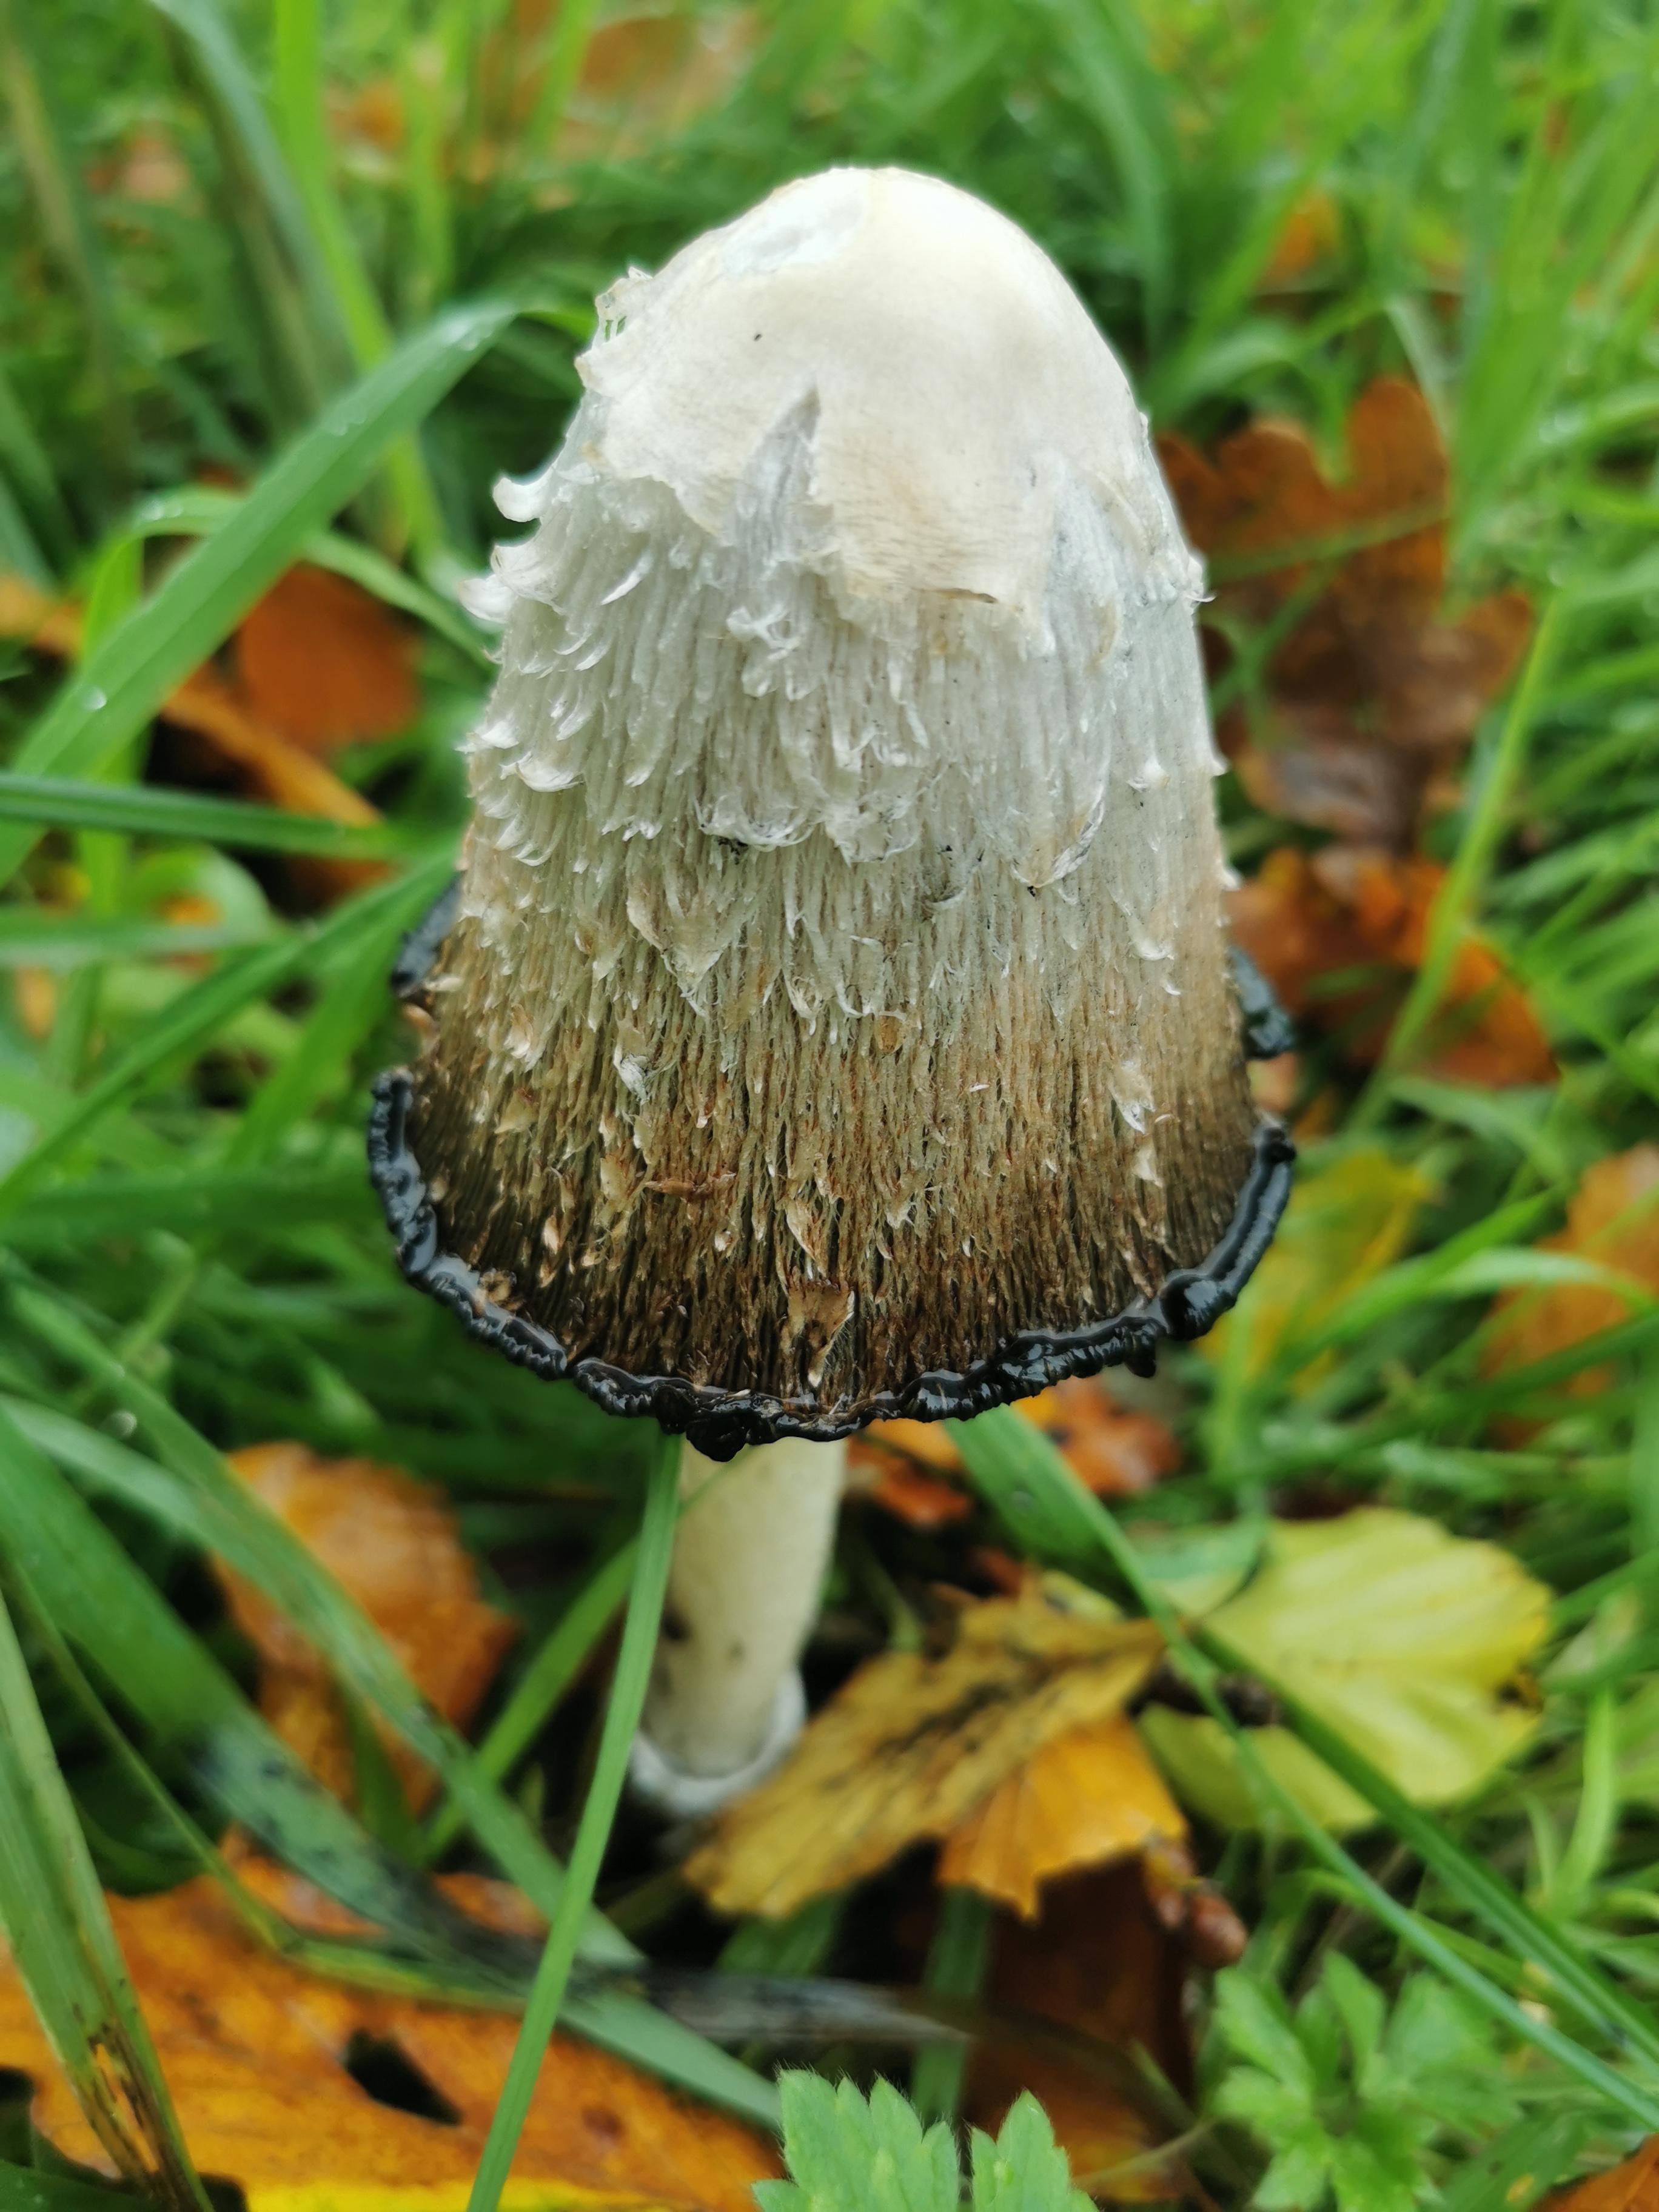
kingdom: Fungi
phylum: Basidiomycota
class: Agaricomycetes
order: Agaricales
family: Agaricaceae
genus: Coprinus
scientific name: Coprinus comatus
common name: stor parykhat
